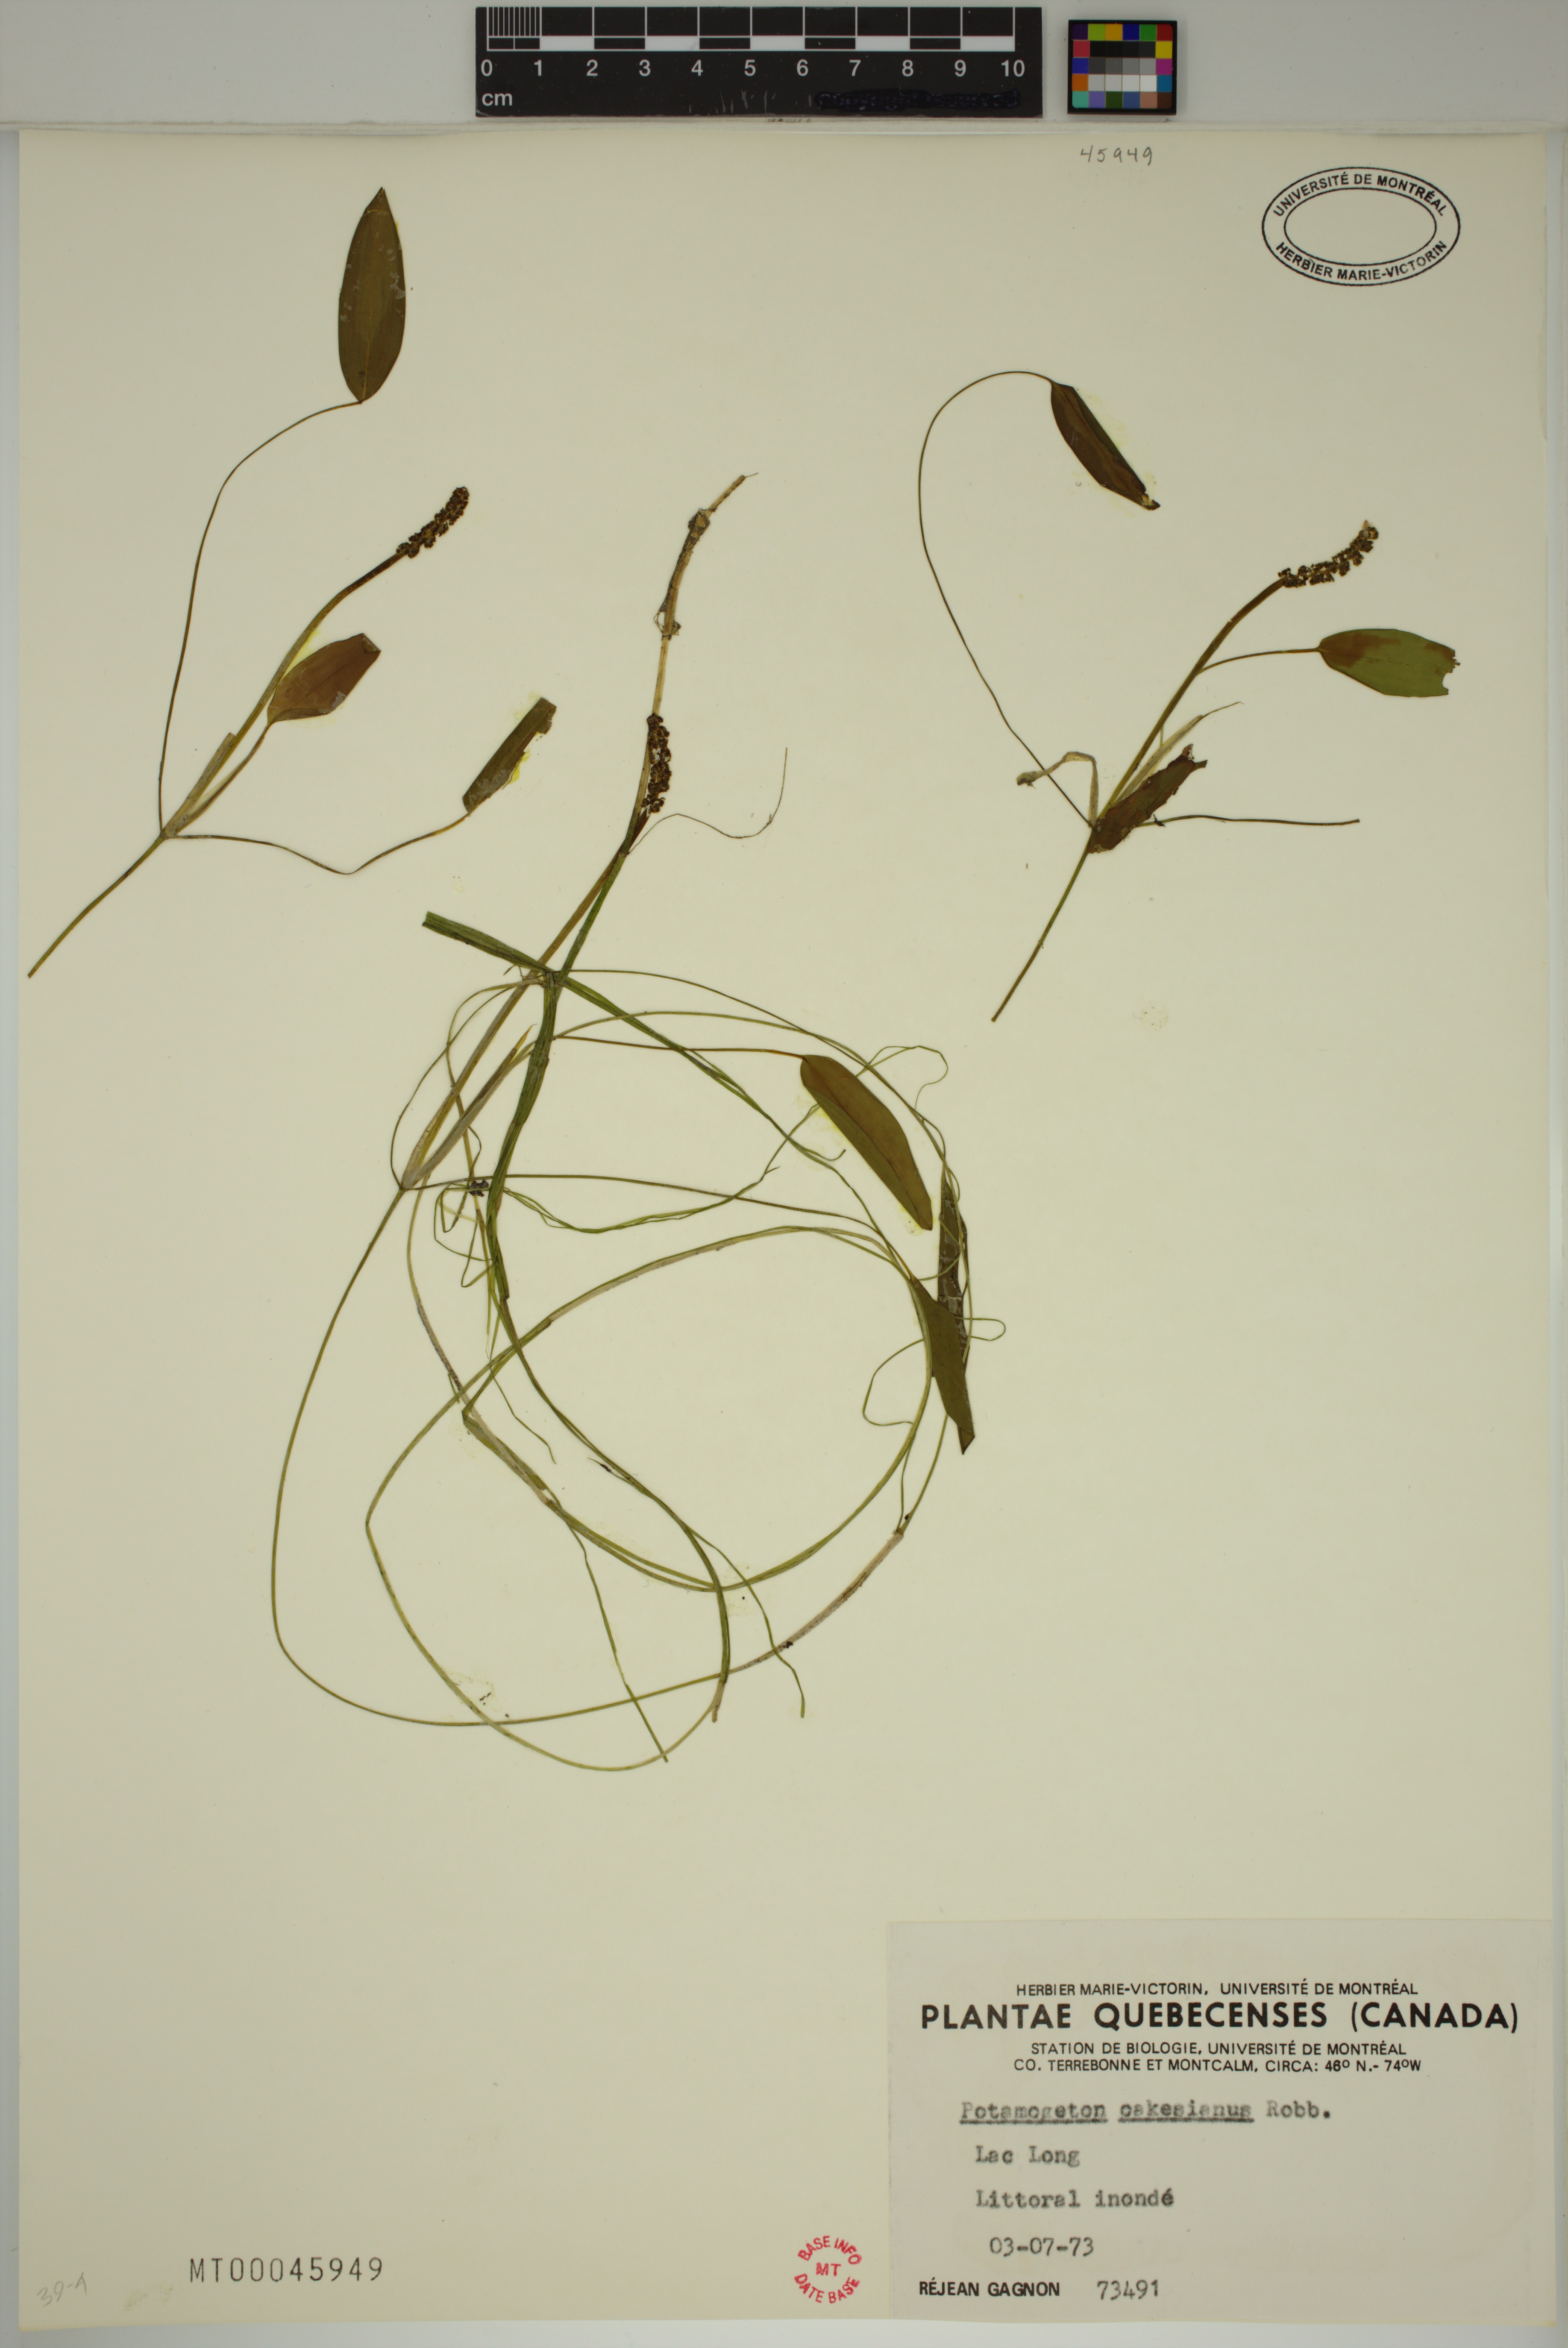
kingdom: Plantae
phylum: Tracheophyta
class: Liliopsida
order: Alismatales
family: Potamogetonaceae
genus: Potamogeton
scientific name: Potamogeton oakesianus
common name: Oakes' pondweed
